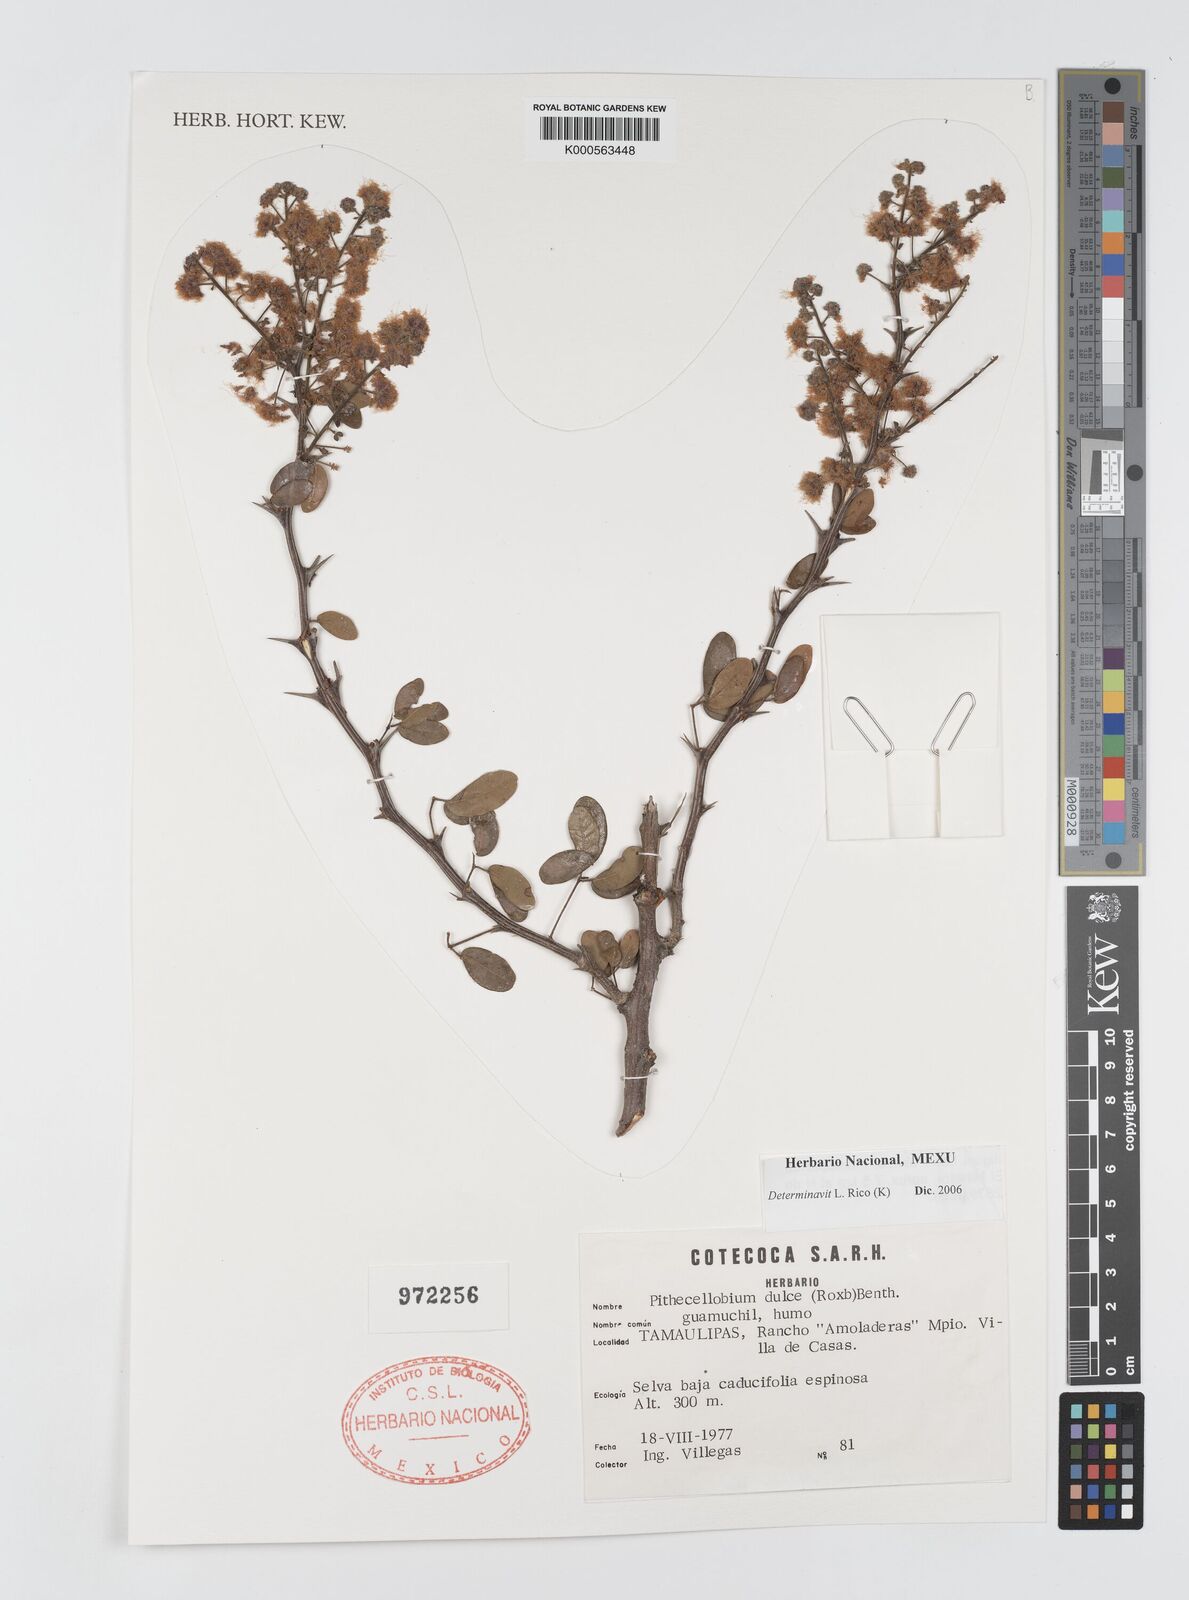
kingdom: Plantae
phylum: Tracheophyta
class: Magnoliopsida
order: Fabales
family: Fabaceae
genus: Pithecellobium
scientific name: Pithecellobium dulce
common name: Monkeypod
